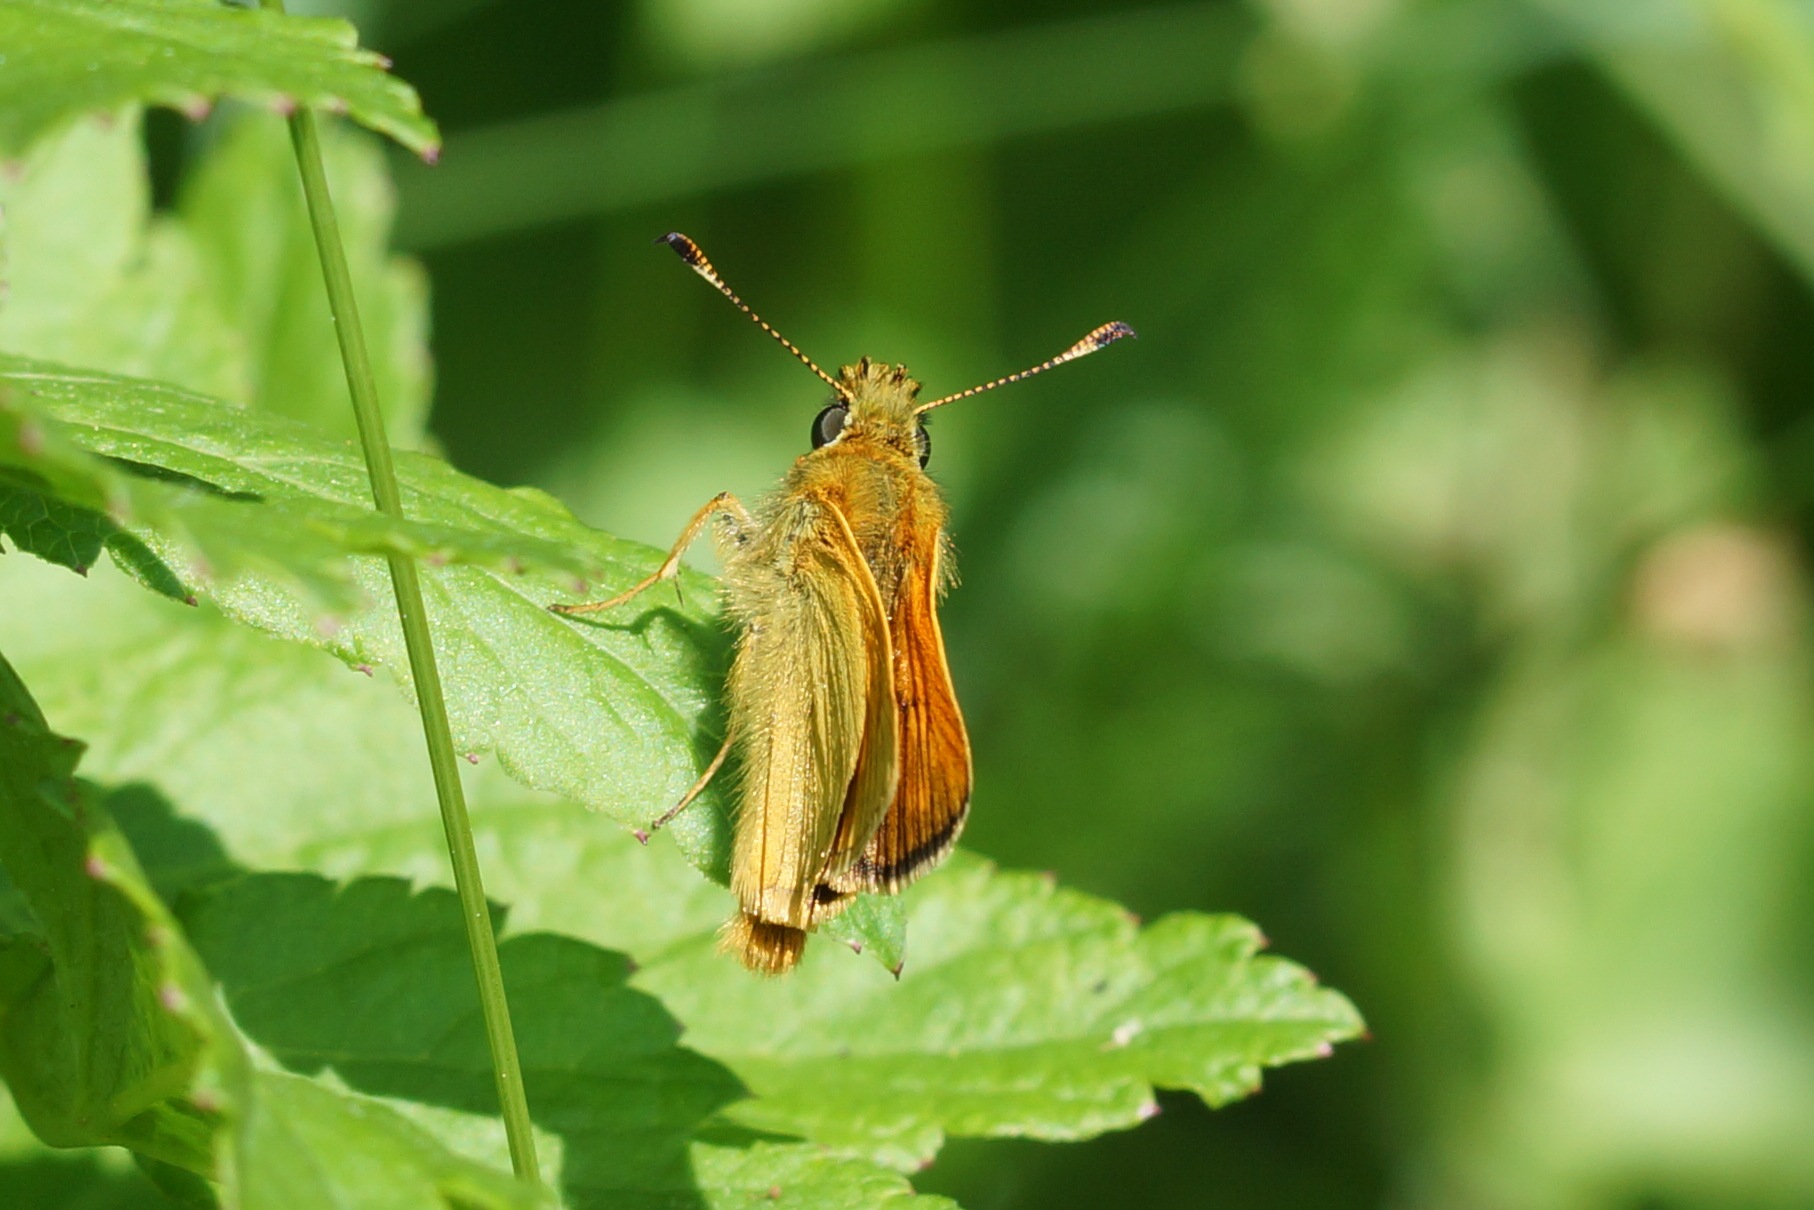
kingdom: Animalia
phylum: Arthropoda
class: Insecta
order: Lepidoptera
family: Hesperiidae
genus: Ochlodes
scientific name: Ochlodes venata
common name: Stor bredpande
